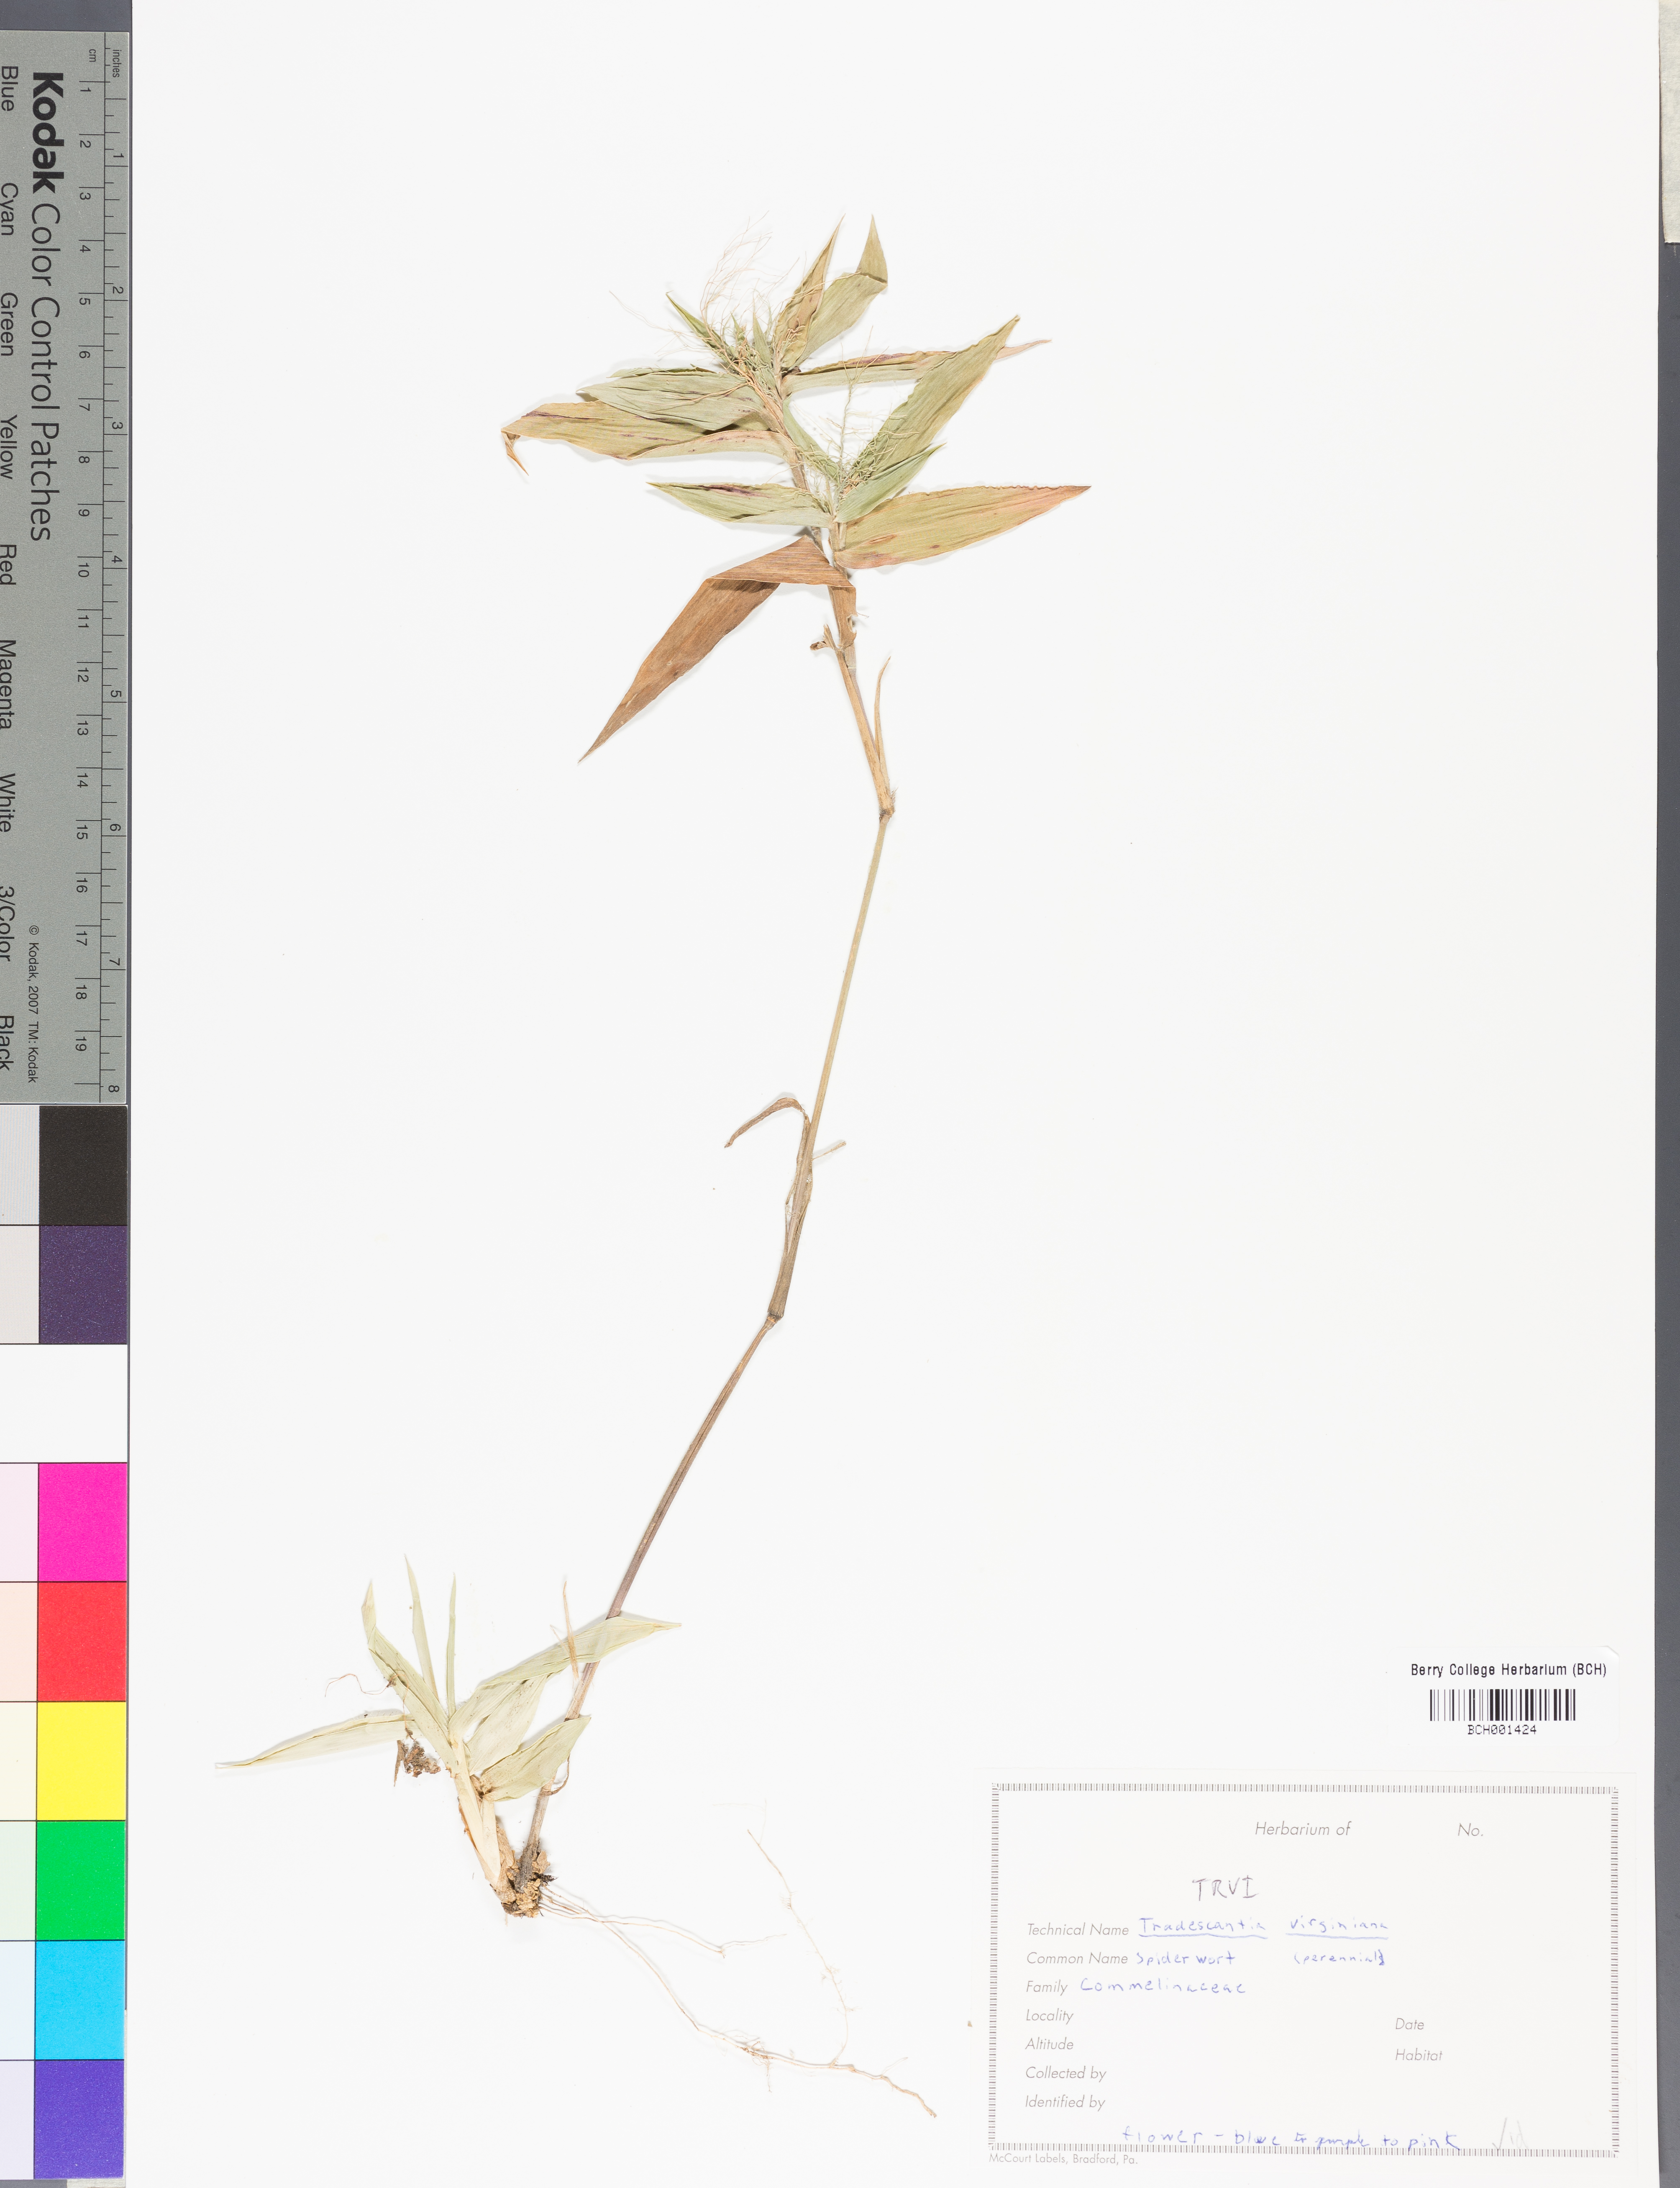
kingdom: Plantae
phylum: Tracheophyta
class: Liliopsida
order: Commelinales
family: Commelinaceae
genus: Tradescantia
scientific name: Tradescantia virginiana
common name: Spiderwort
